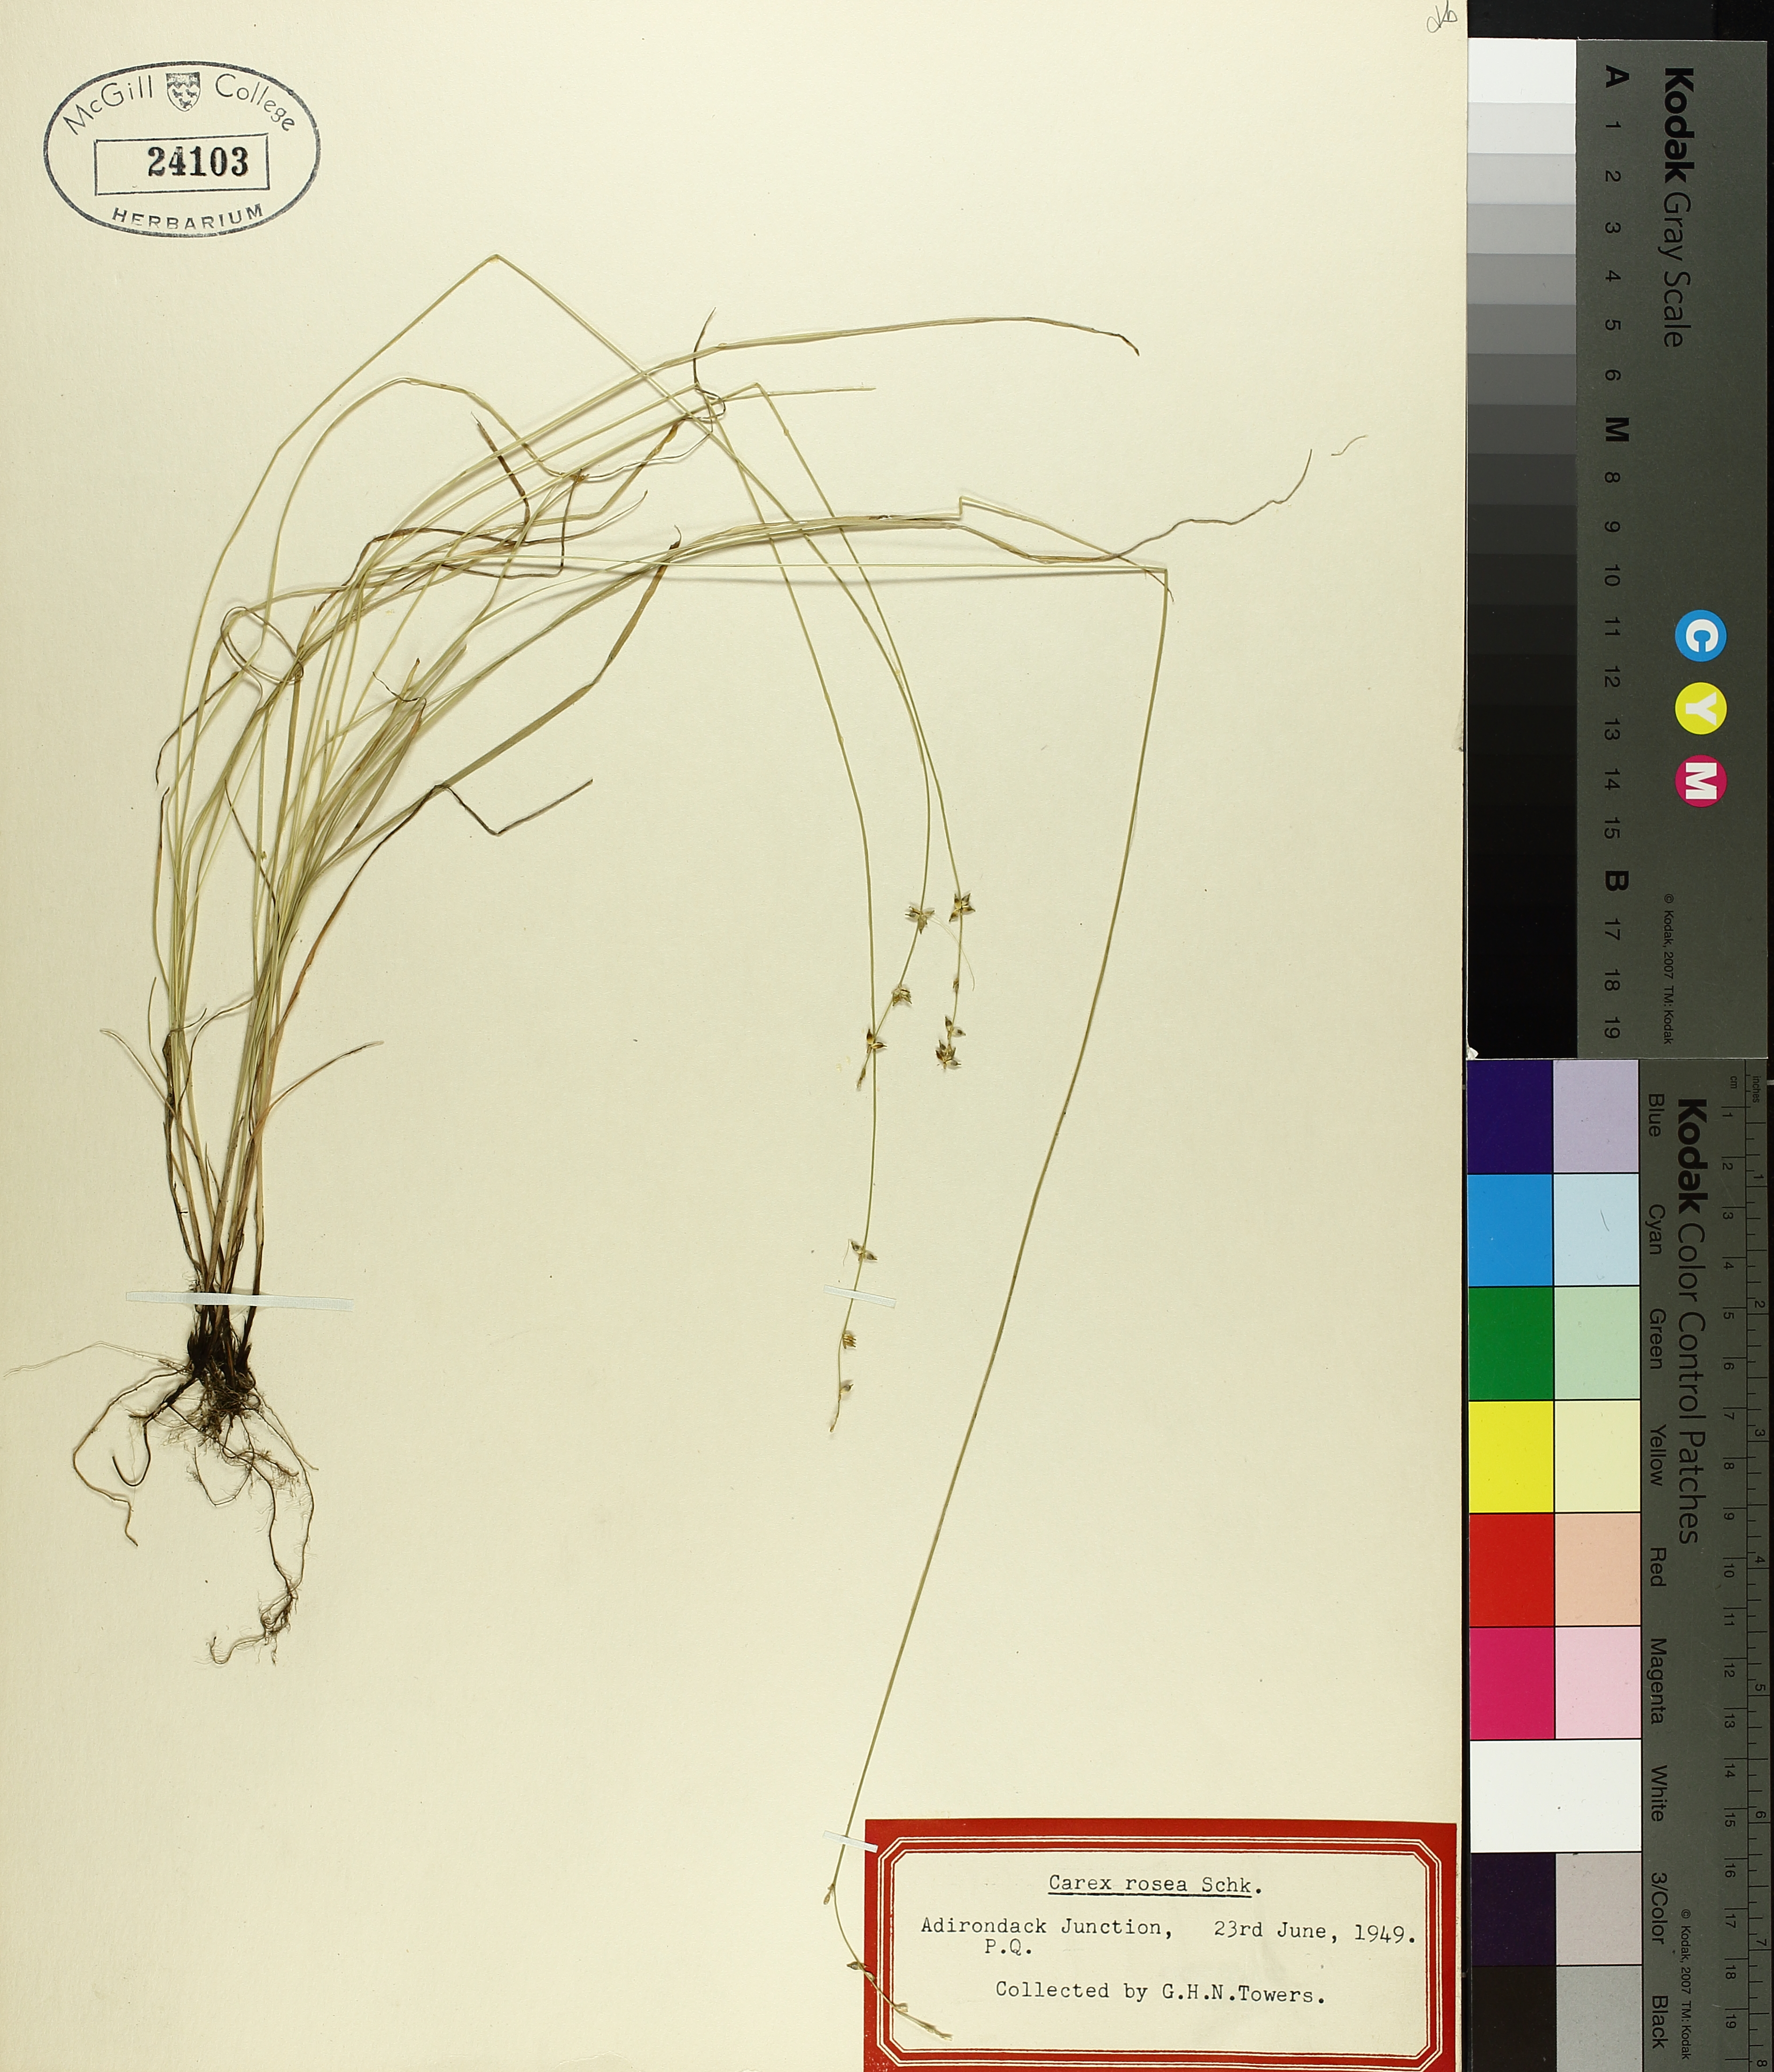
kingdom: Plantae
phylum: Tracheophyta
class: Liliopsida
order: Poales
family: Cyperaceae
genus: Carex
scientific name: Carex rosea
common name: Curly-styled wood sedge
